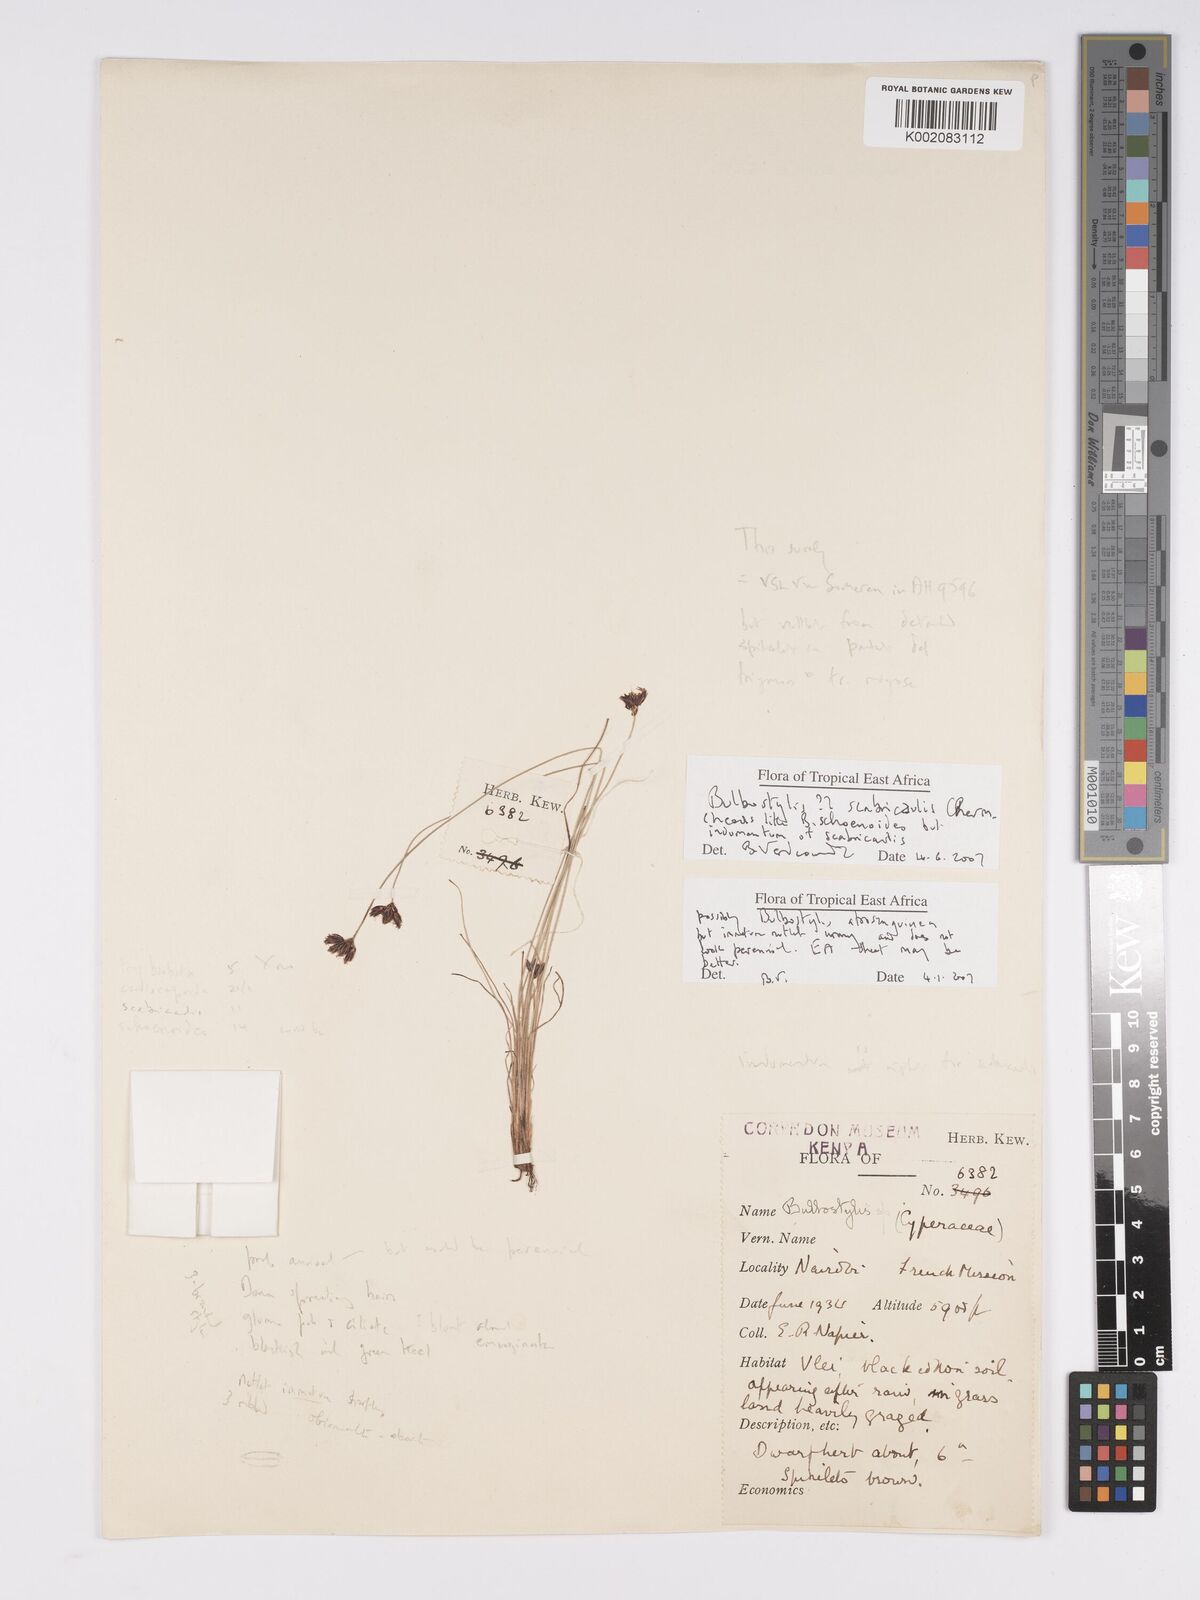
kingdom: Plantae
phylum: Tracheophyta
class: Magnoliopsida
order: Asterales
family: Asteraceae
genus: Bulbostylis
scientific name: Bulbostylis
